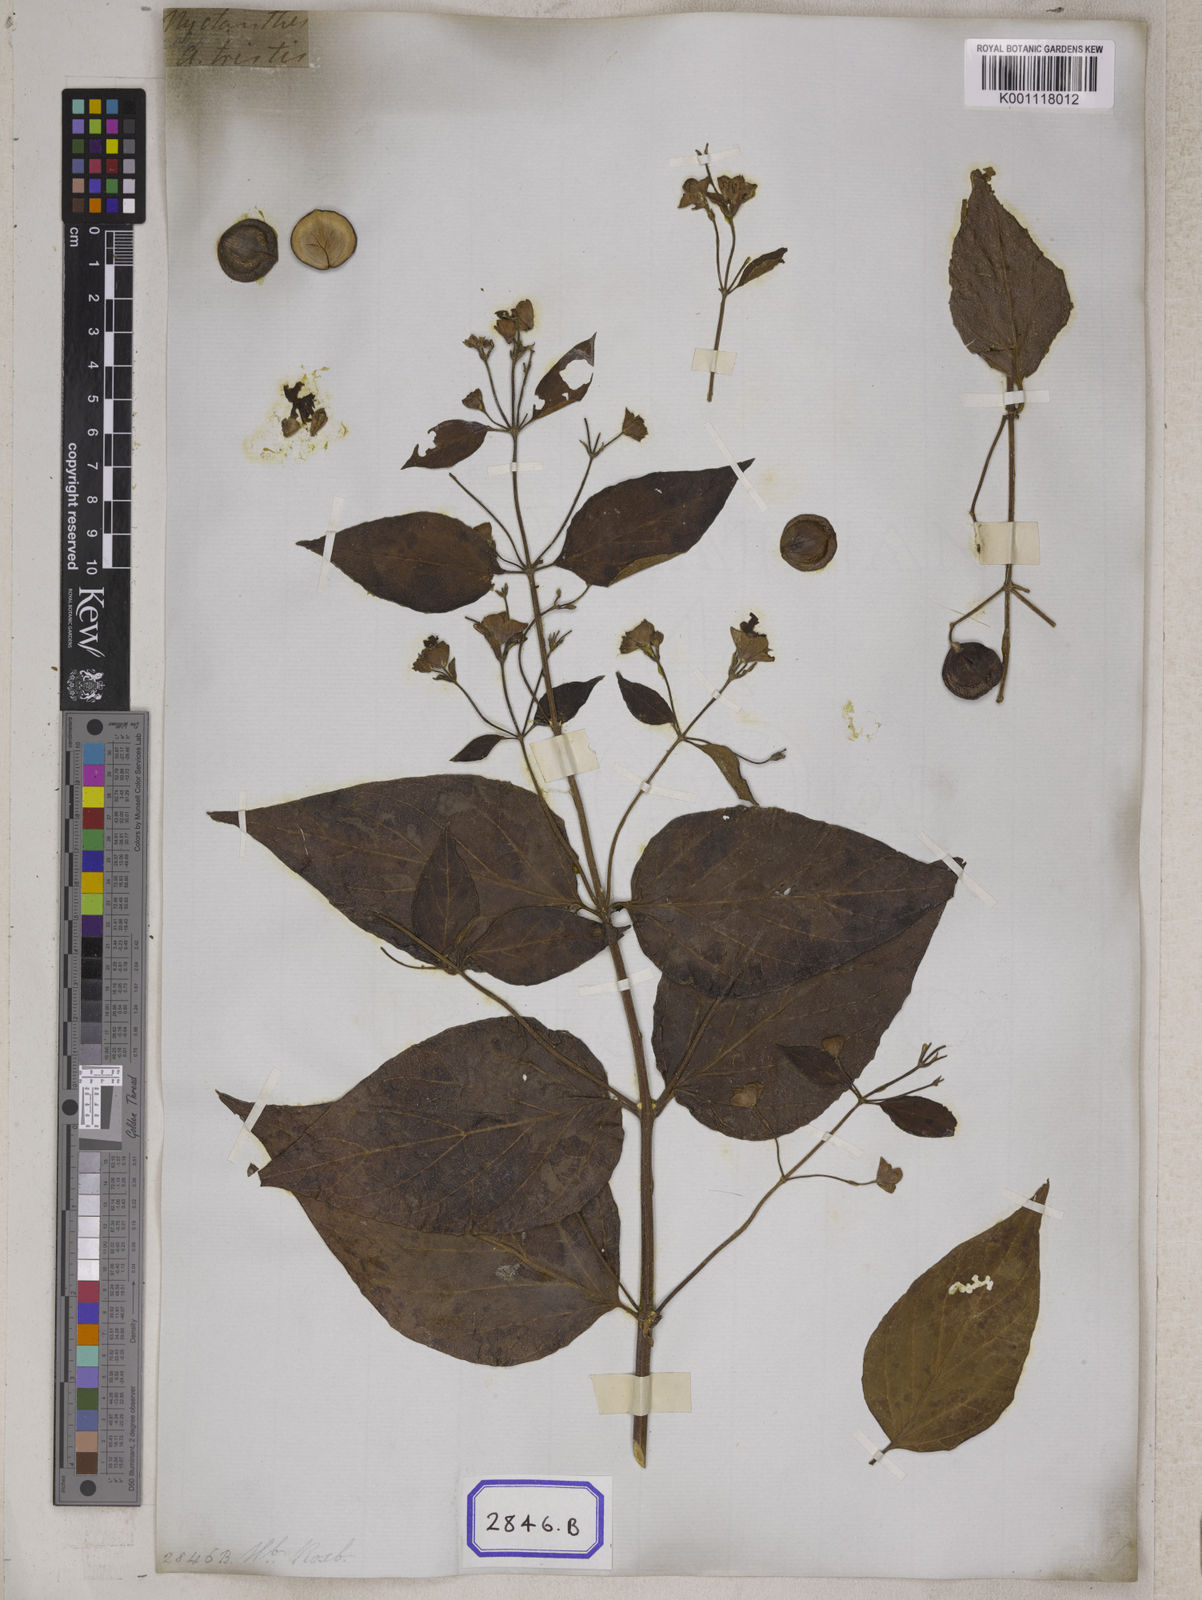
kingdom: Plantae
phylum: Tracheophyta
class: Magnoliopsida
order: Lamiales
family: Oleaceae
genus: Nyctanthes
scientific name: Nyctanthes arbor-tristis
